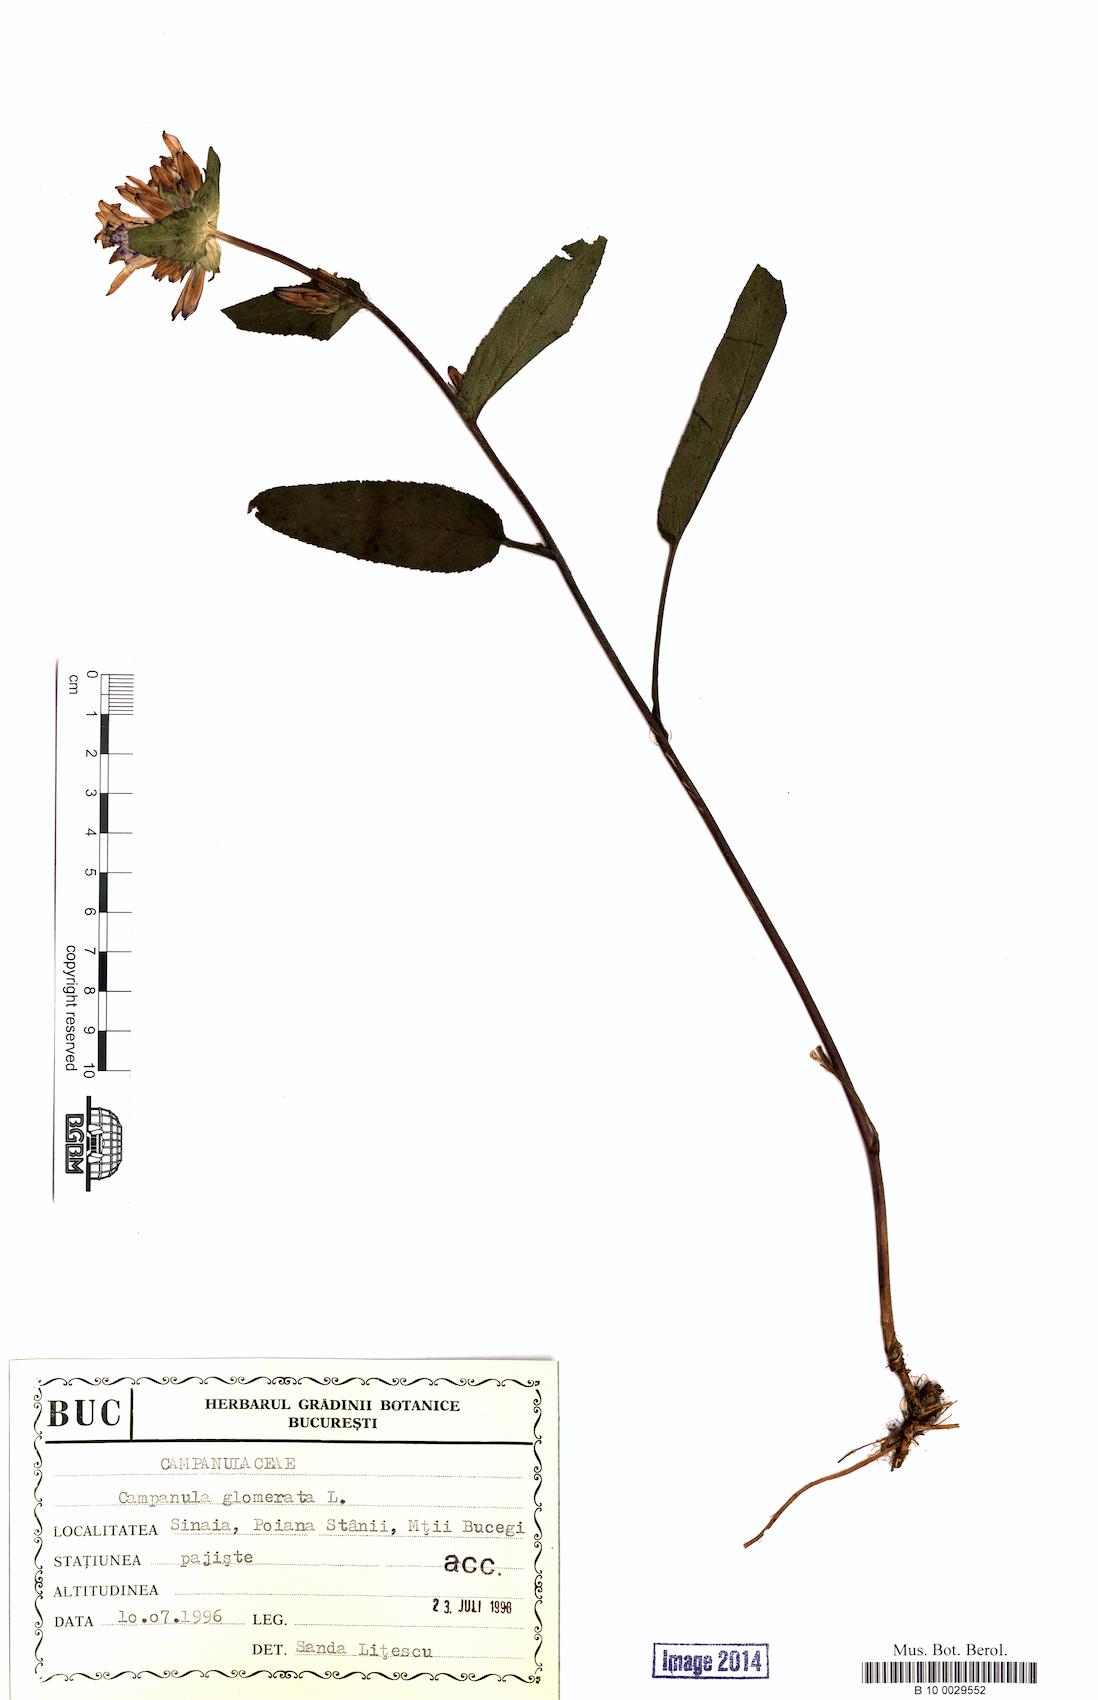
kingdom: Plantae
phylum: Tracheophyta
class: Magnoliopsida
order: Asterales
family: Campanulaceae
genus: Campanula
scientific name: Campanula glomerata
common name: Clustered bellflower
